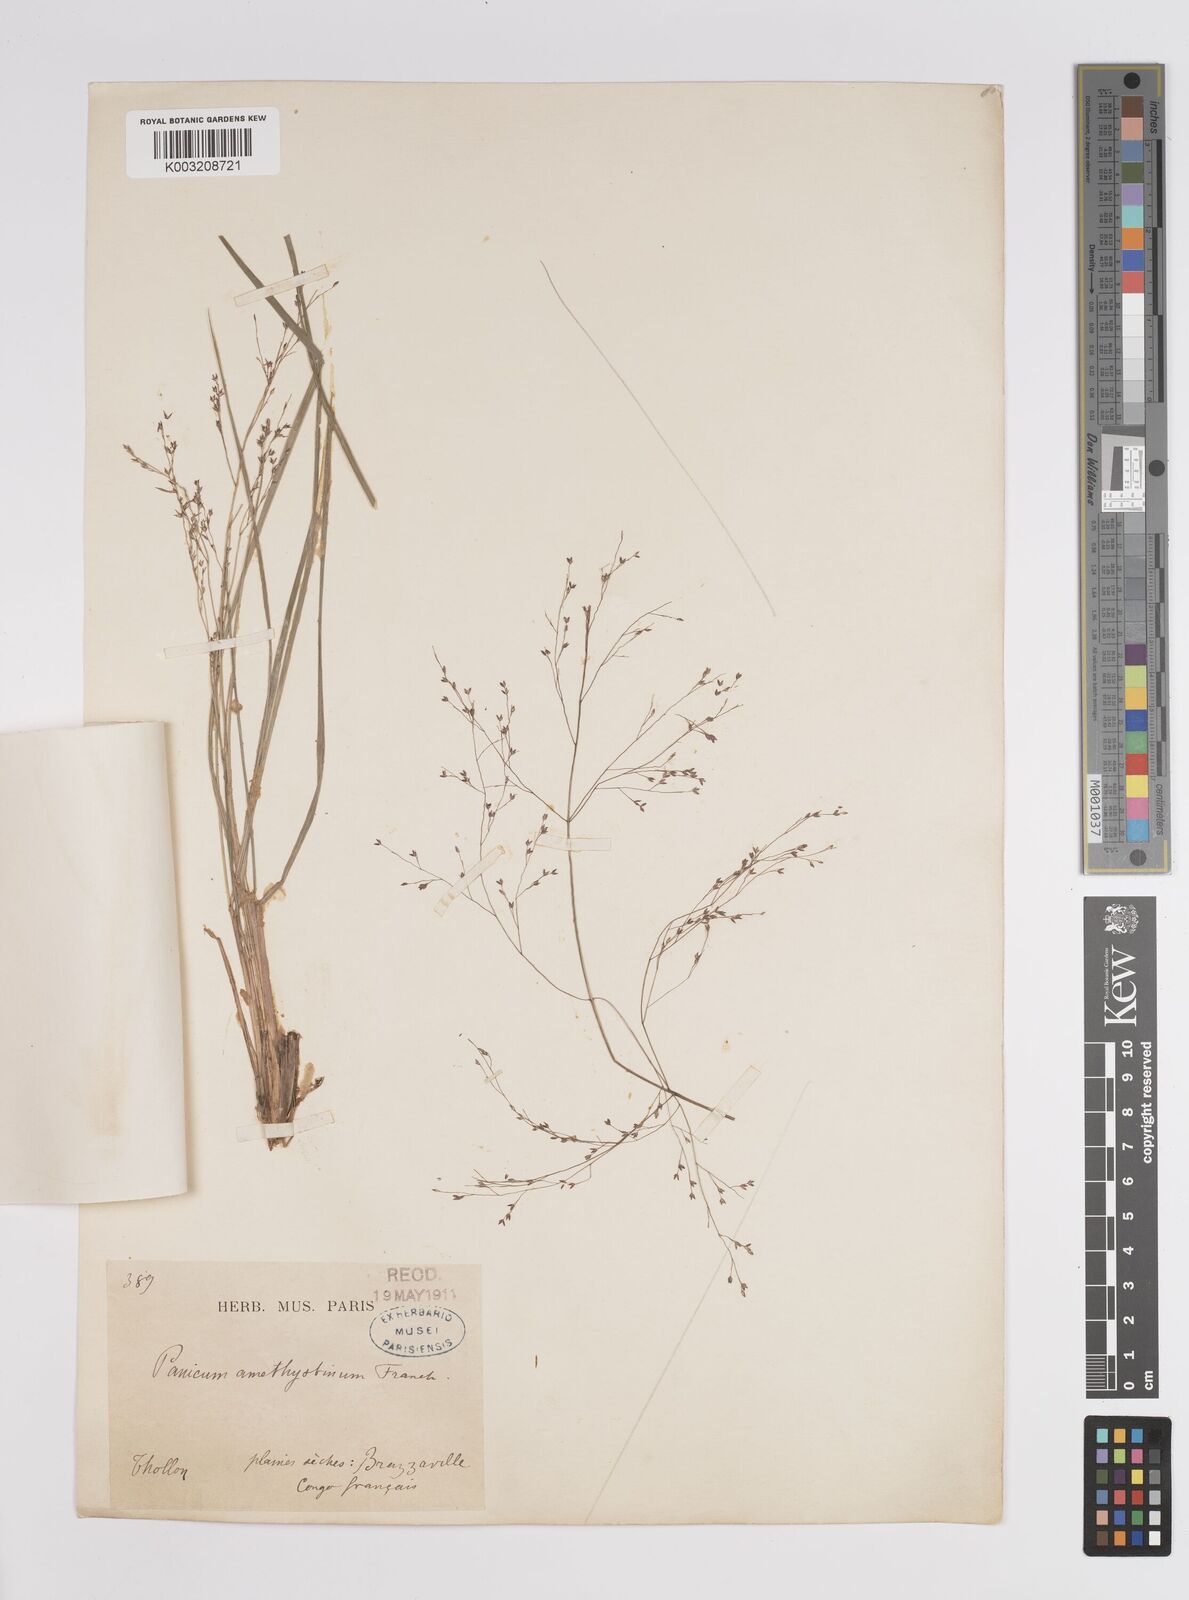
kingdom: Plantae
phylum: Tracheophyta
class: Liliopsida
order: Poales
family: Poaceae
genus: Panicum
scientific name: Panicum dregeanum
